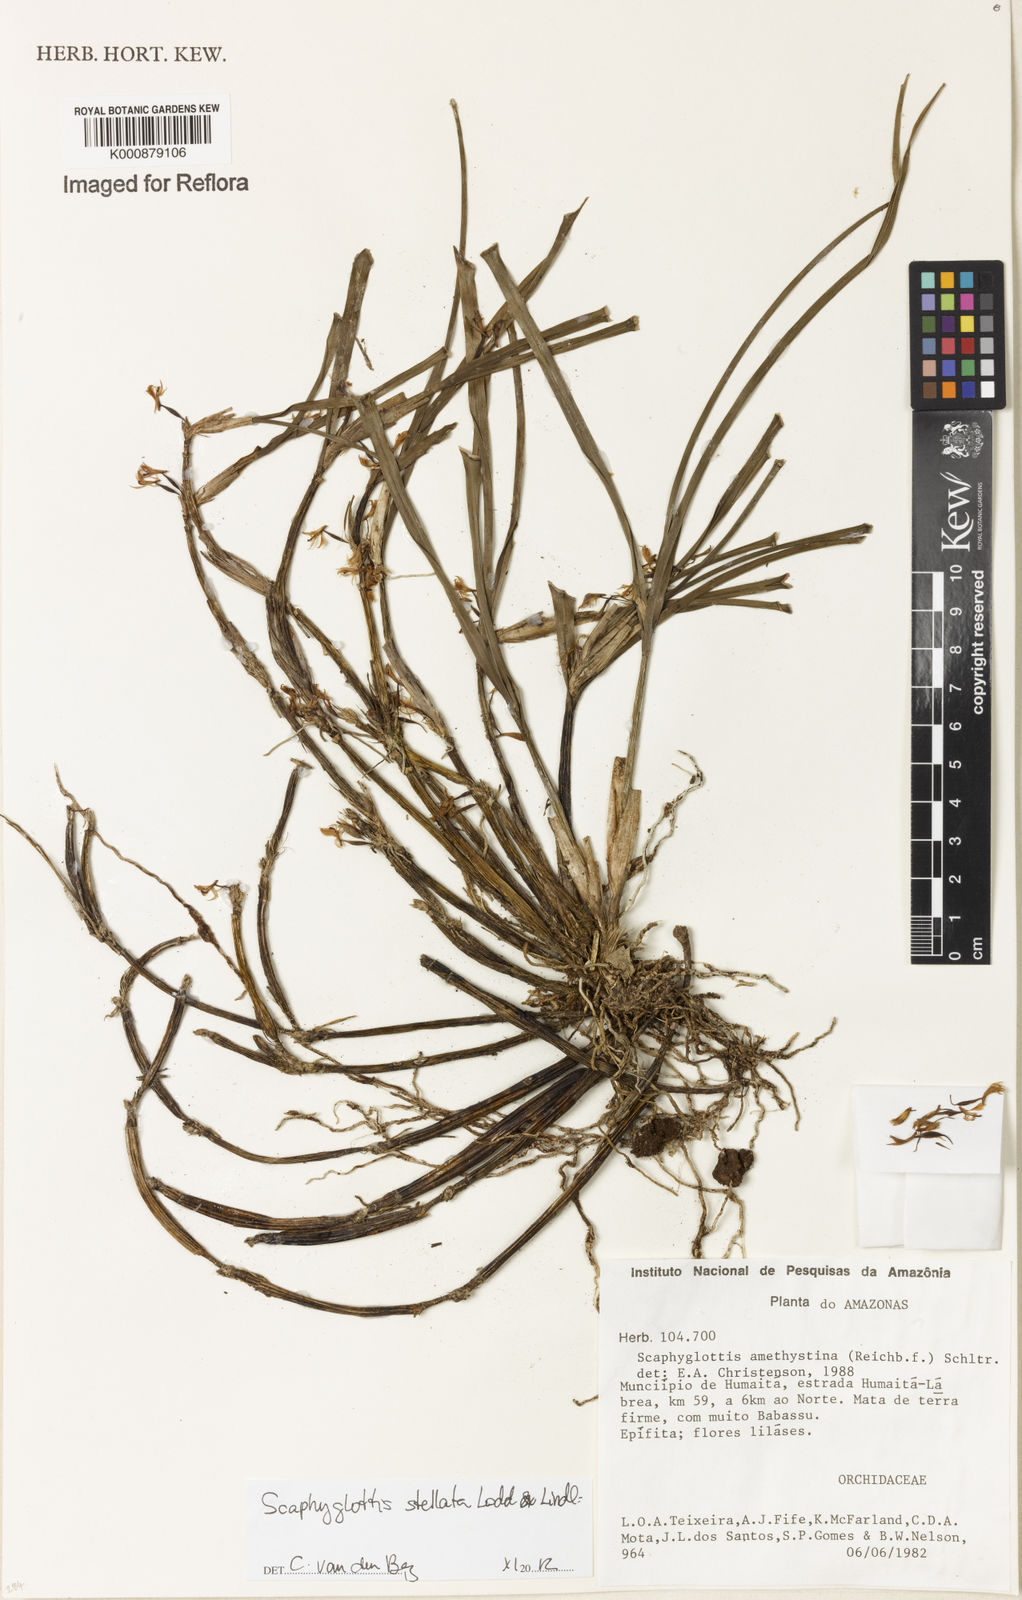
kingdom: Plantae
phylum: Tracheophyta
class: Liliopsida
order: Asparagales
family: Orchidaceae
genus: Scaphyglottis
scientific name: Scaphyglottis stellata
